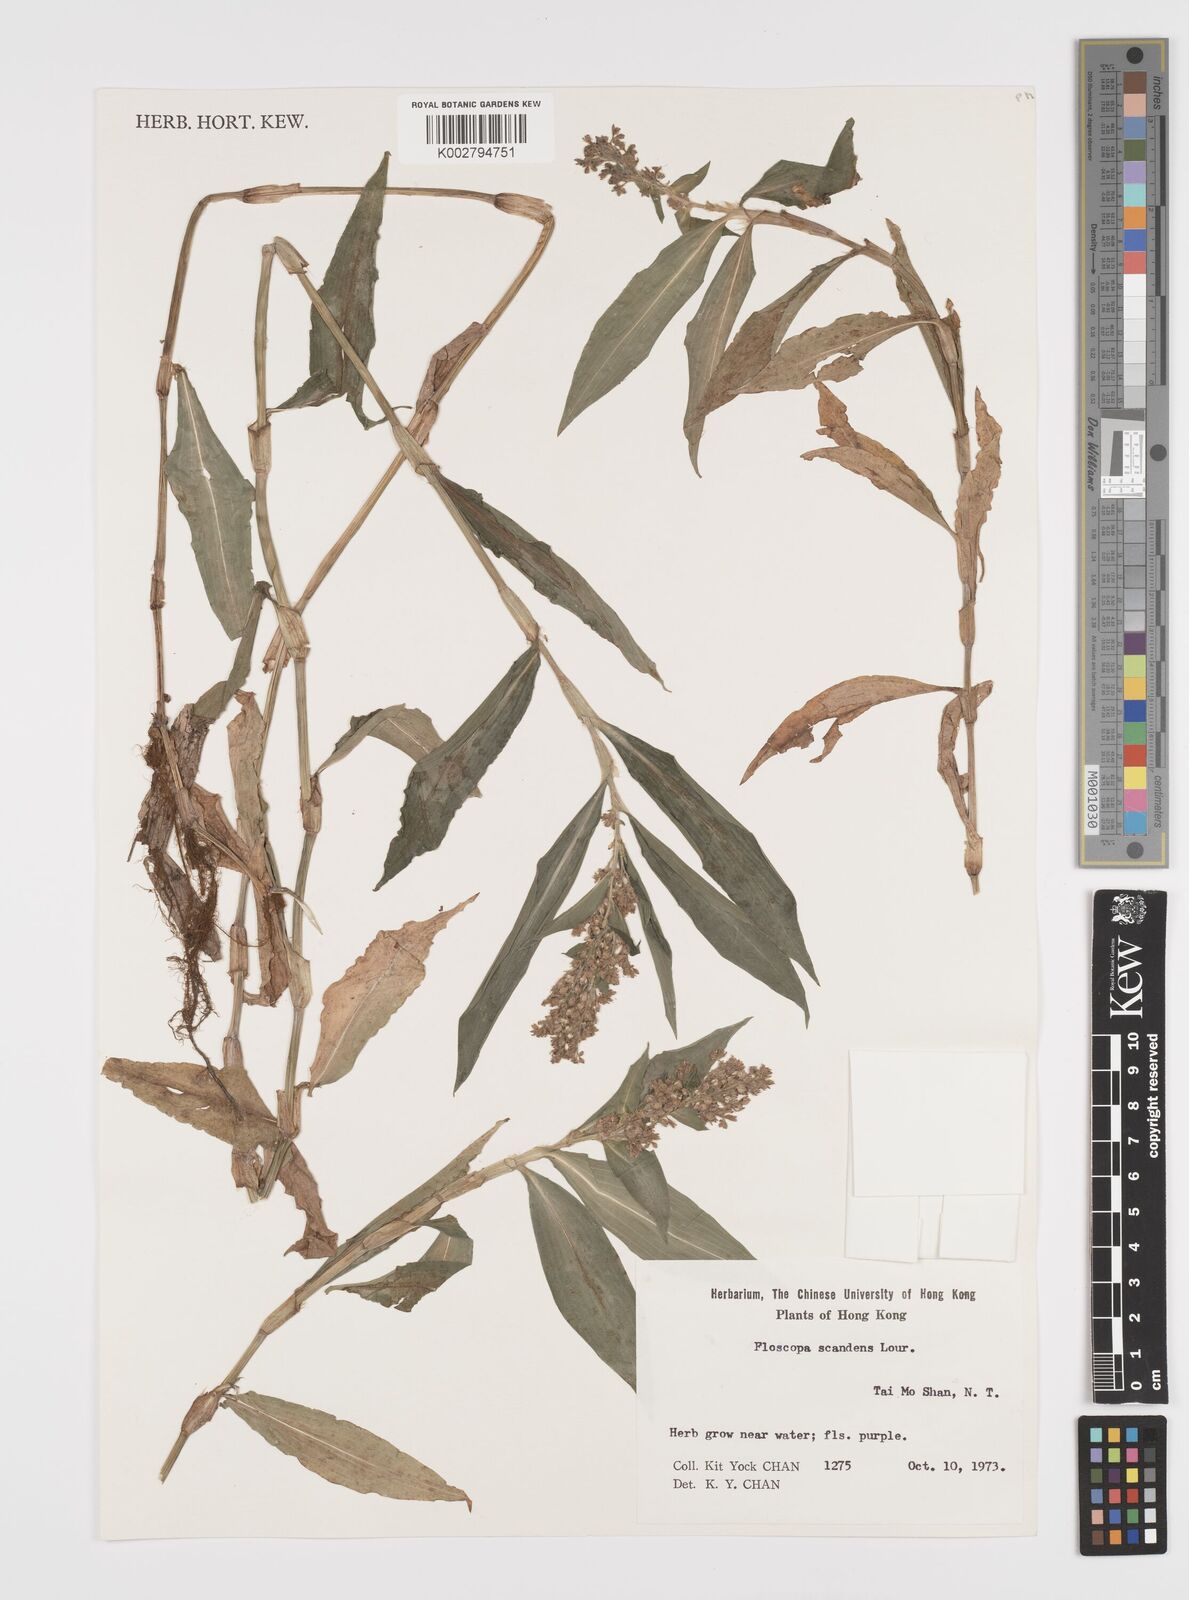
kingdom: Plantae
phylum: Tracheophyta
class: Liliopsida
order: Commelinales
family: Commelinaceae
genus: Floscopa
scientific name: Floscopa scandens
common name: Climbing flower cup
